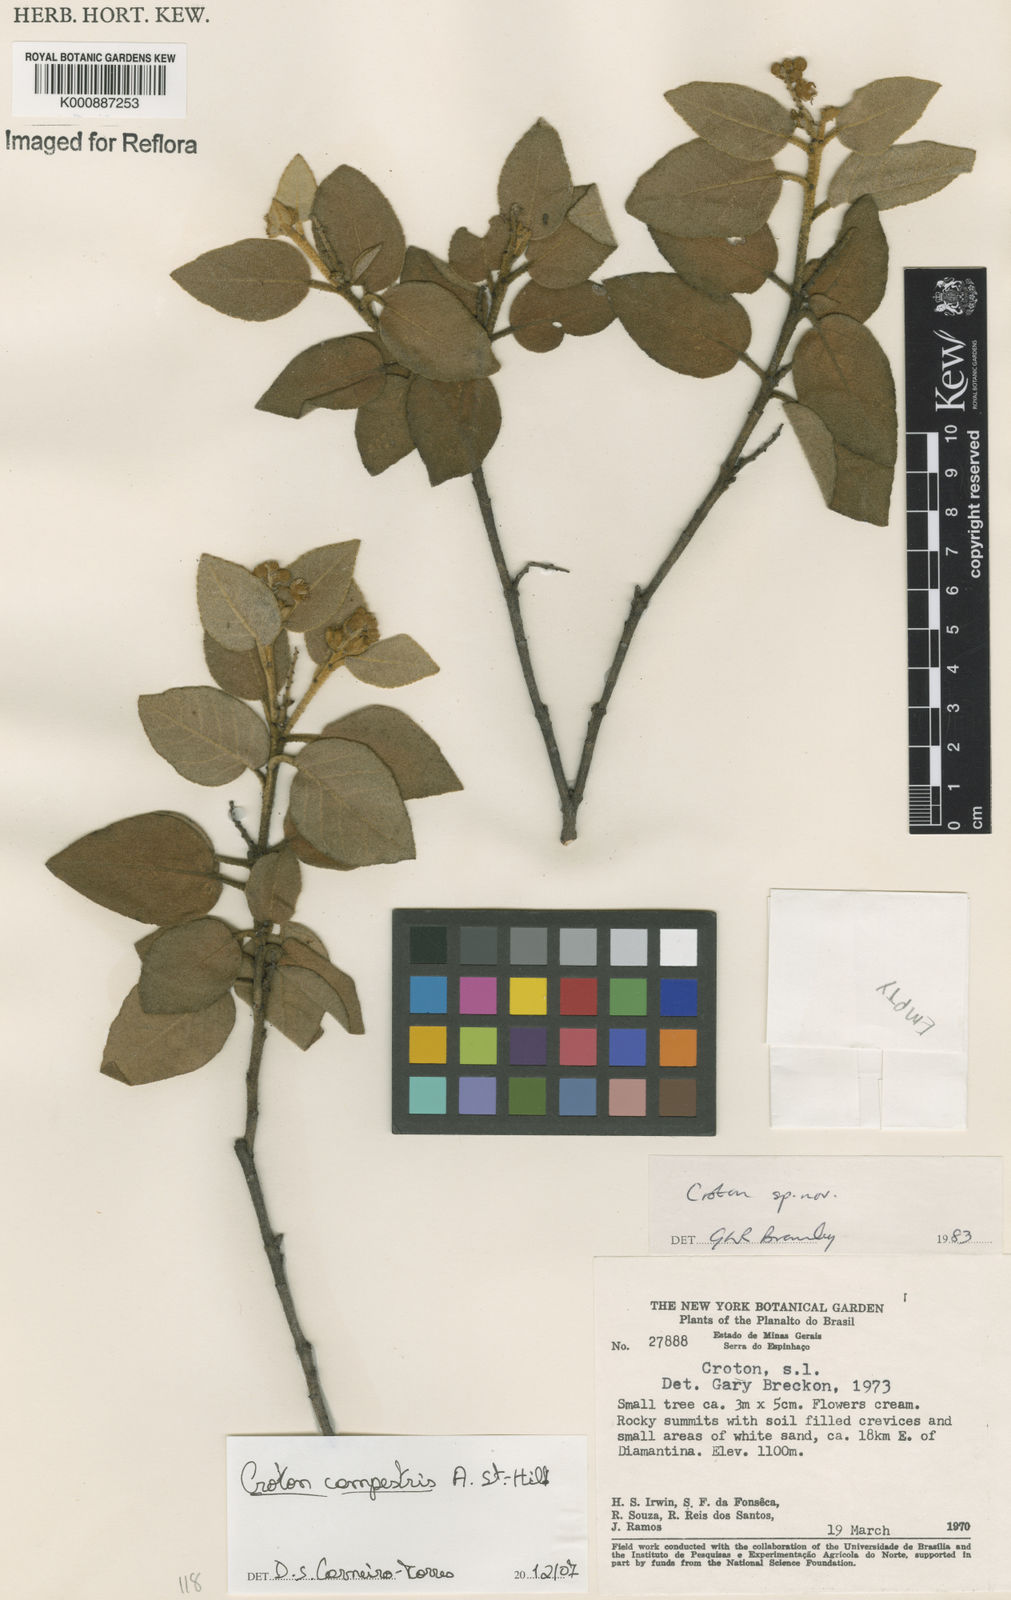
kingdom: Plantae
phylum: Tracheophyta
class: Magnoliopsida
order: Malpighiales
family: Euphorbiaceae
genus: Croton
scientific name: Croton campestris
